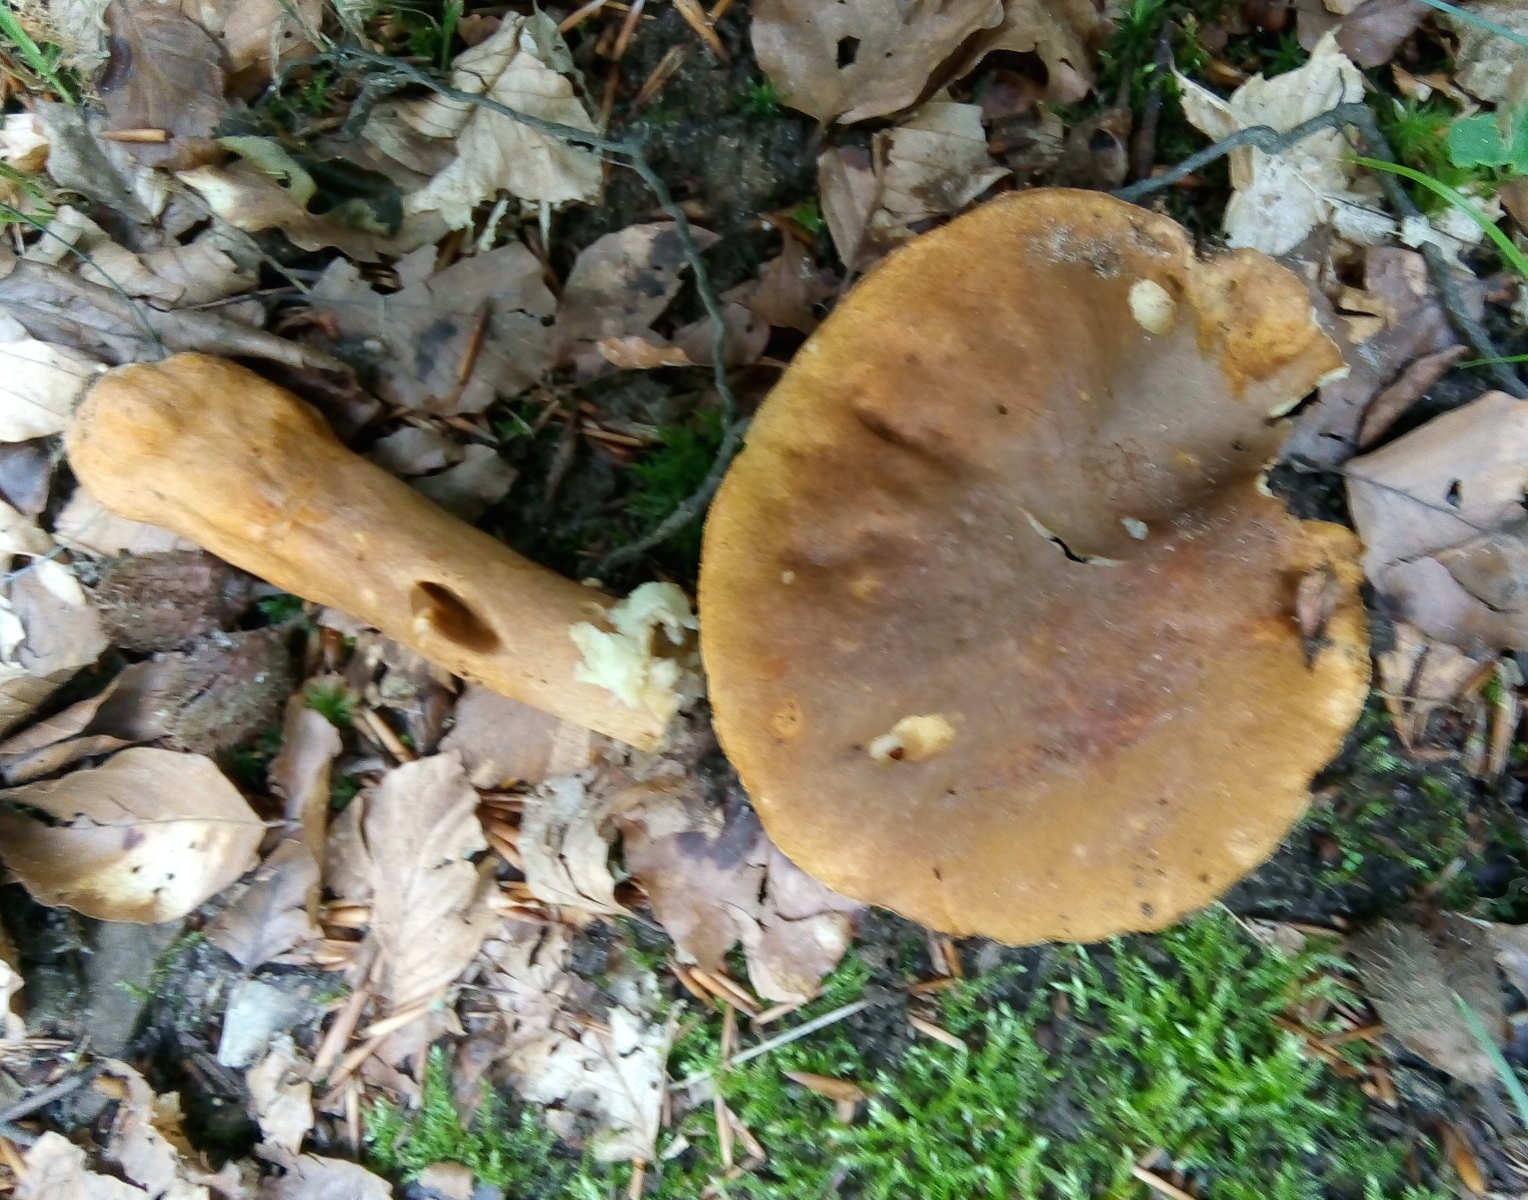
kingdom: Fungi
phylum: Basidiomycota
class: Agaricomycetes
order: Boletales
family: Gyroporaceae
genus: Gyroporus
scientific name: Gyroporus castaneus
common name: kastanie-kammerrørhat
